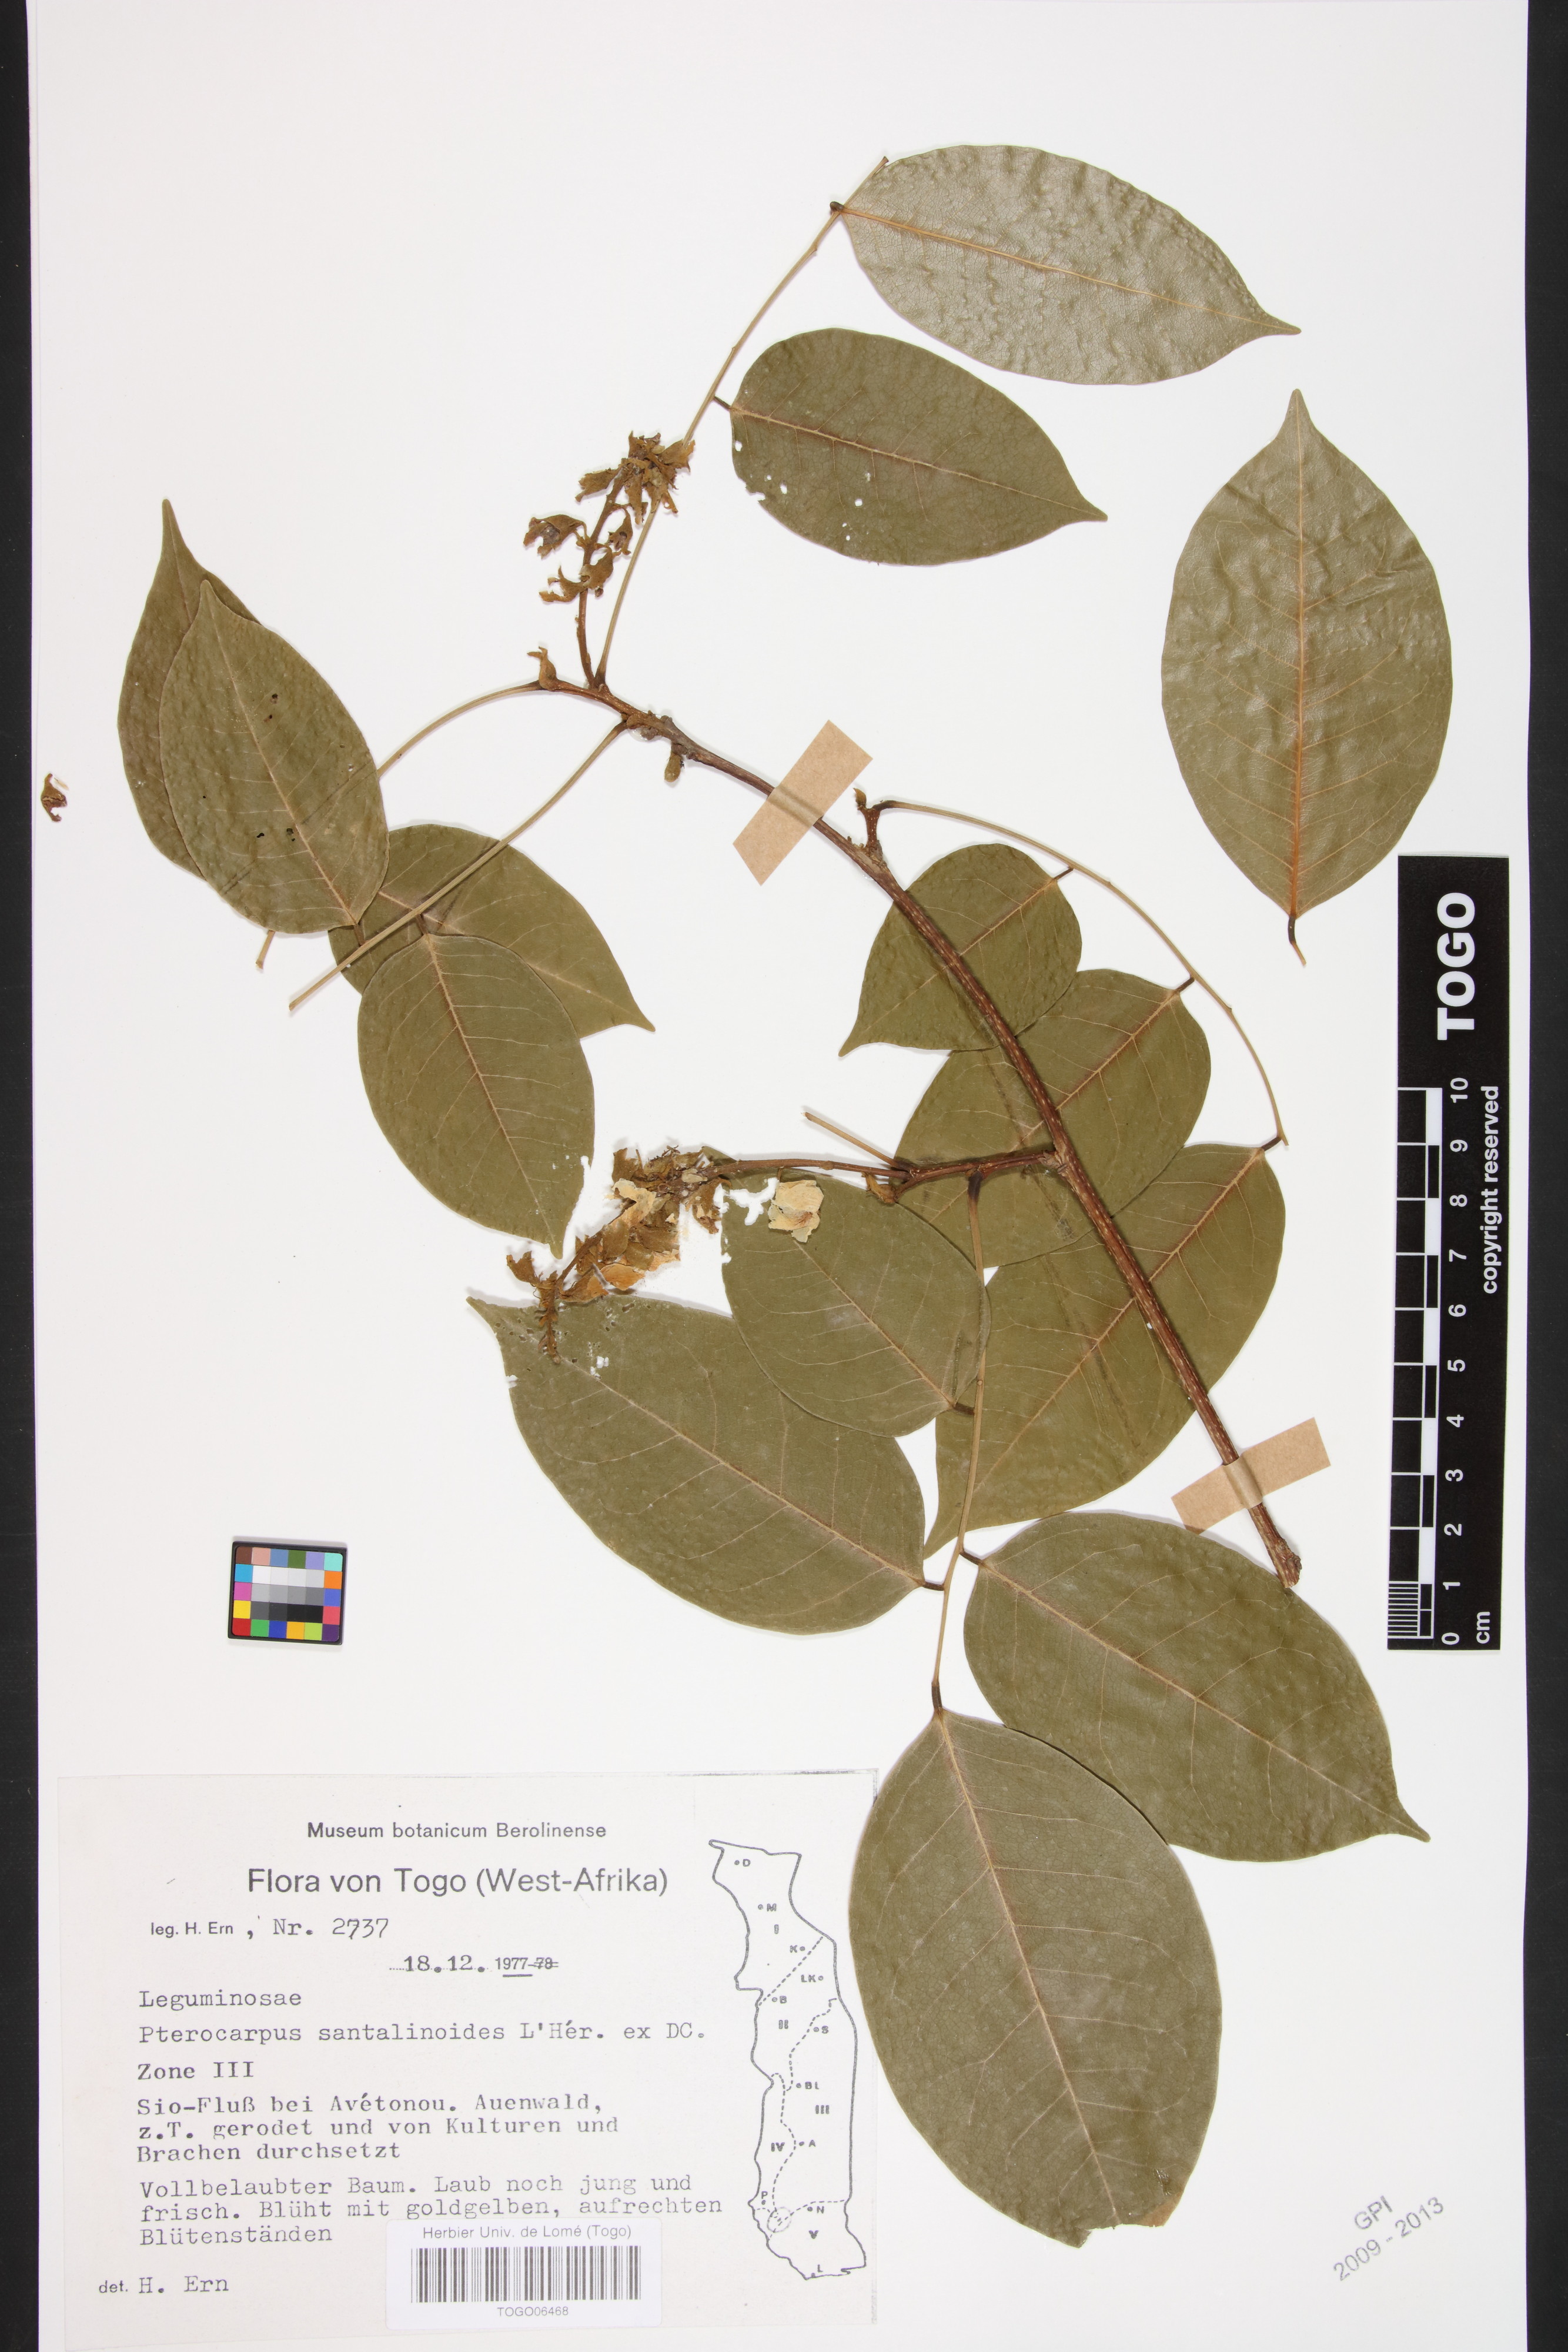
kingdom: Plantae
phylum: Tracheophyta
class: Magnoliopsida
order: Fabales
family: Fabaceae
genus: Pterocarpus
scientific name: Pterocarpus santalinoides
